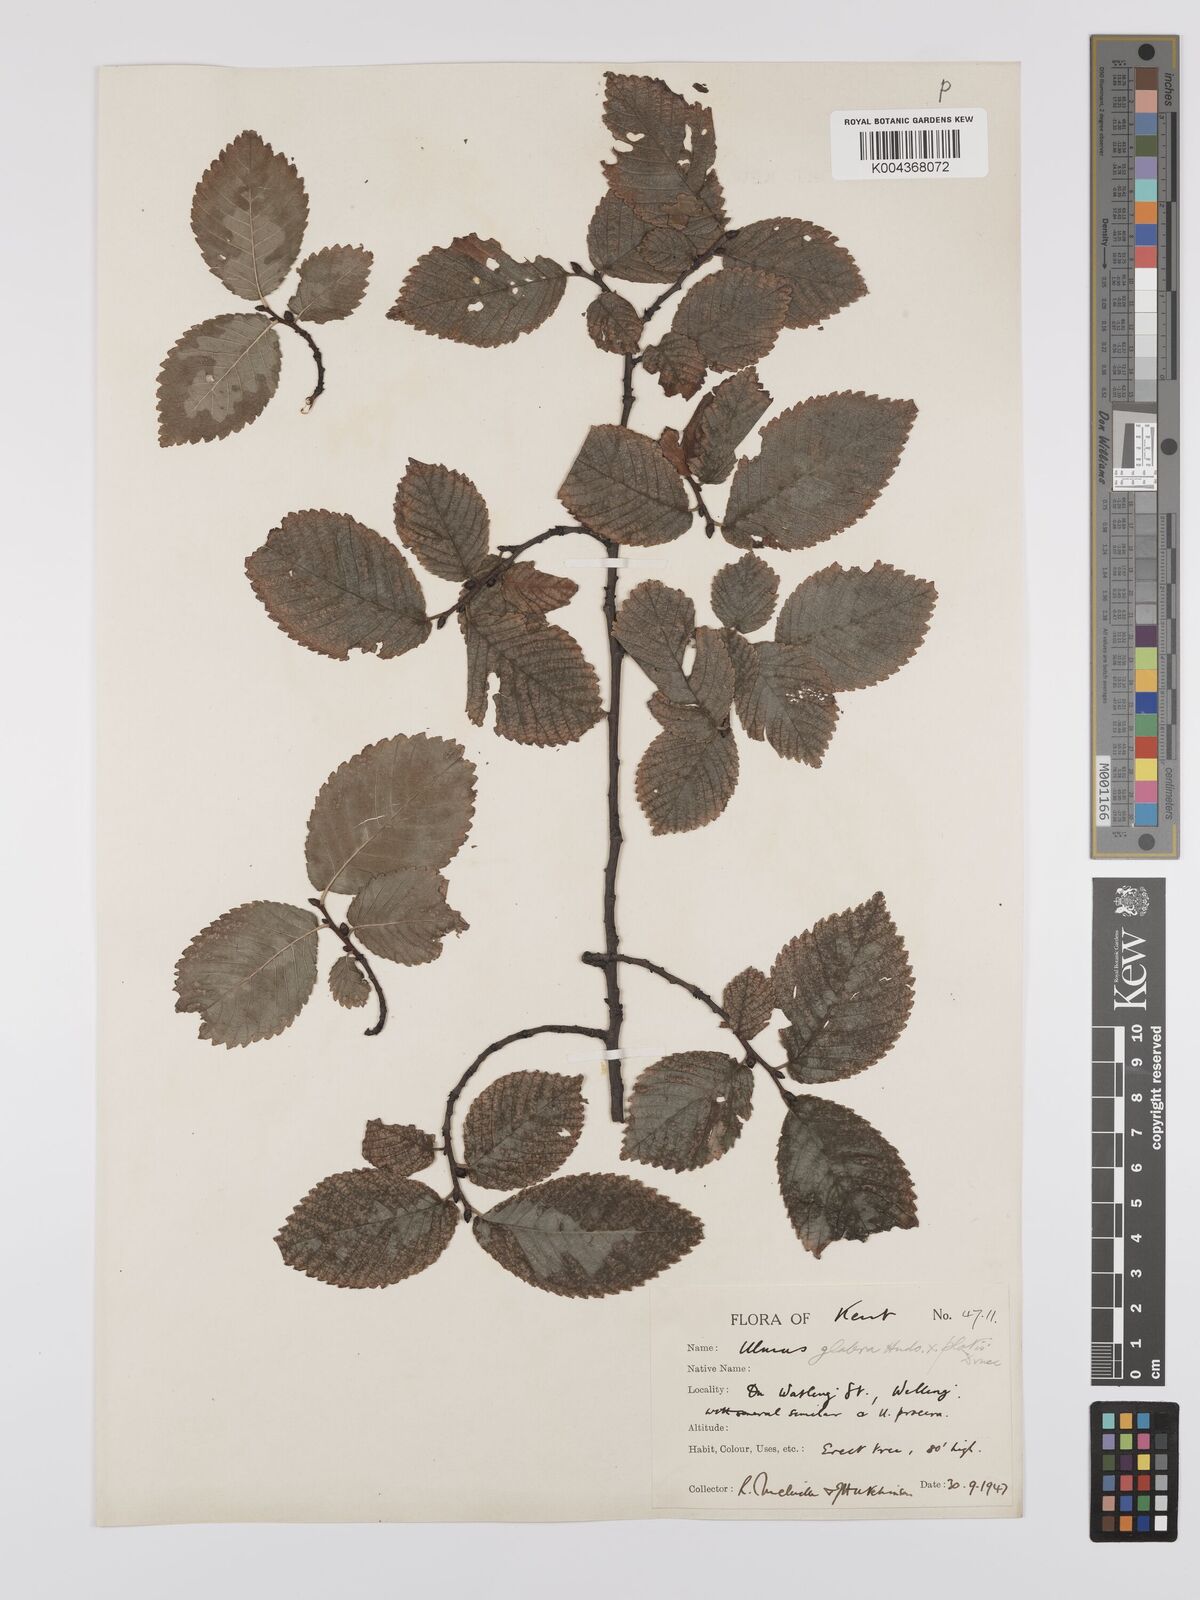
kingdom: Plantae
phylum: Tracheophyta
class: Magnoliopsida
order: Rosales
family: Ulmaceae
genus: Ulmus
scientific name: Ulmus
